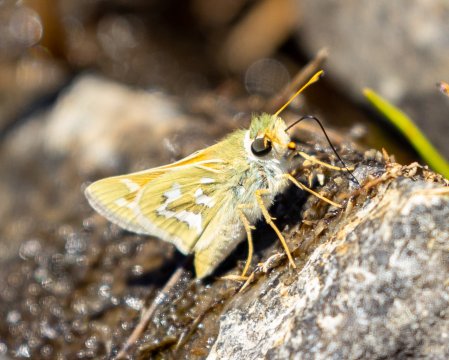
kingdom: Animalia
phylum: Arthropoda
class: Insecta
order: Lepidoptera
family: Hesperiidae
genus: Hesperia
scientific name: Hesperia comma
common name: Western Branded Skipper
